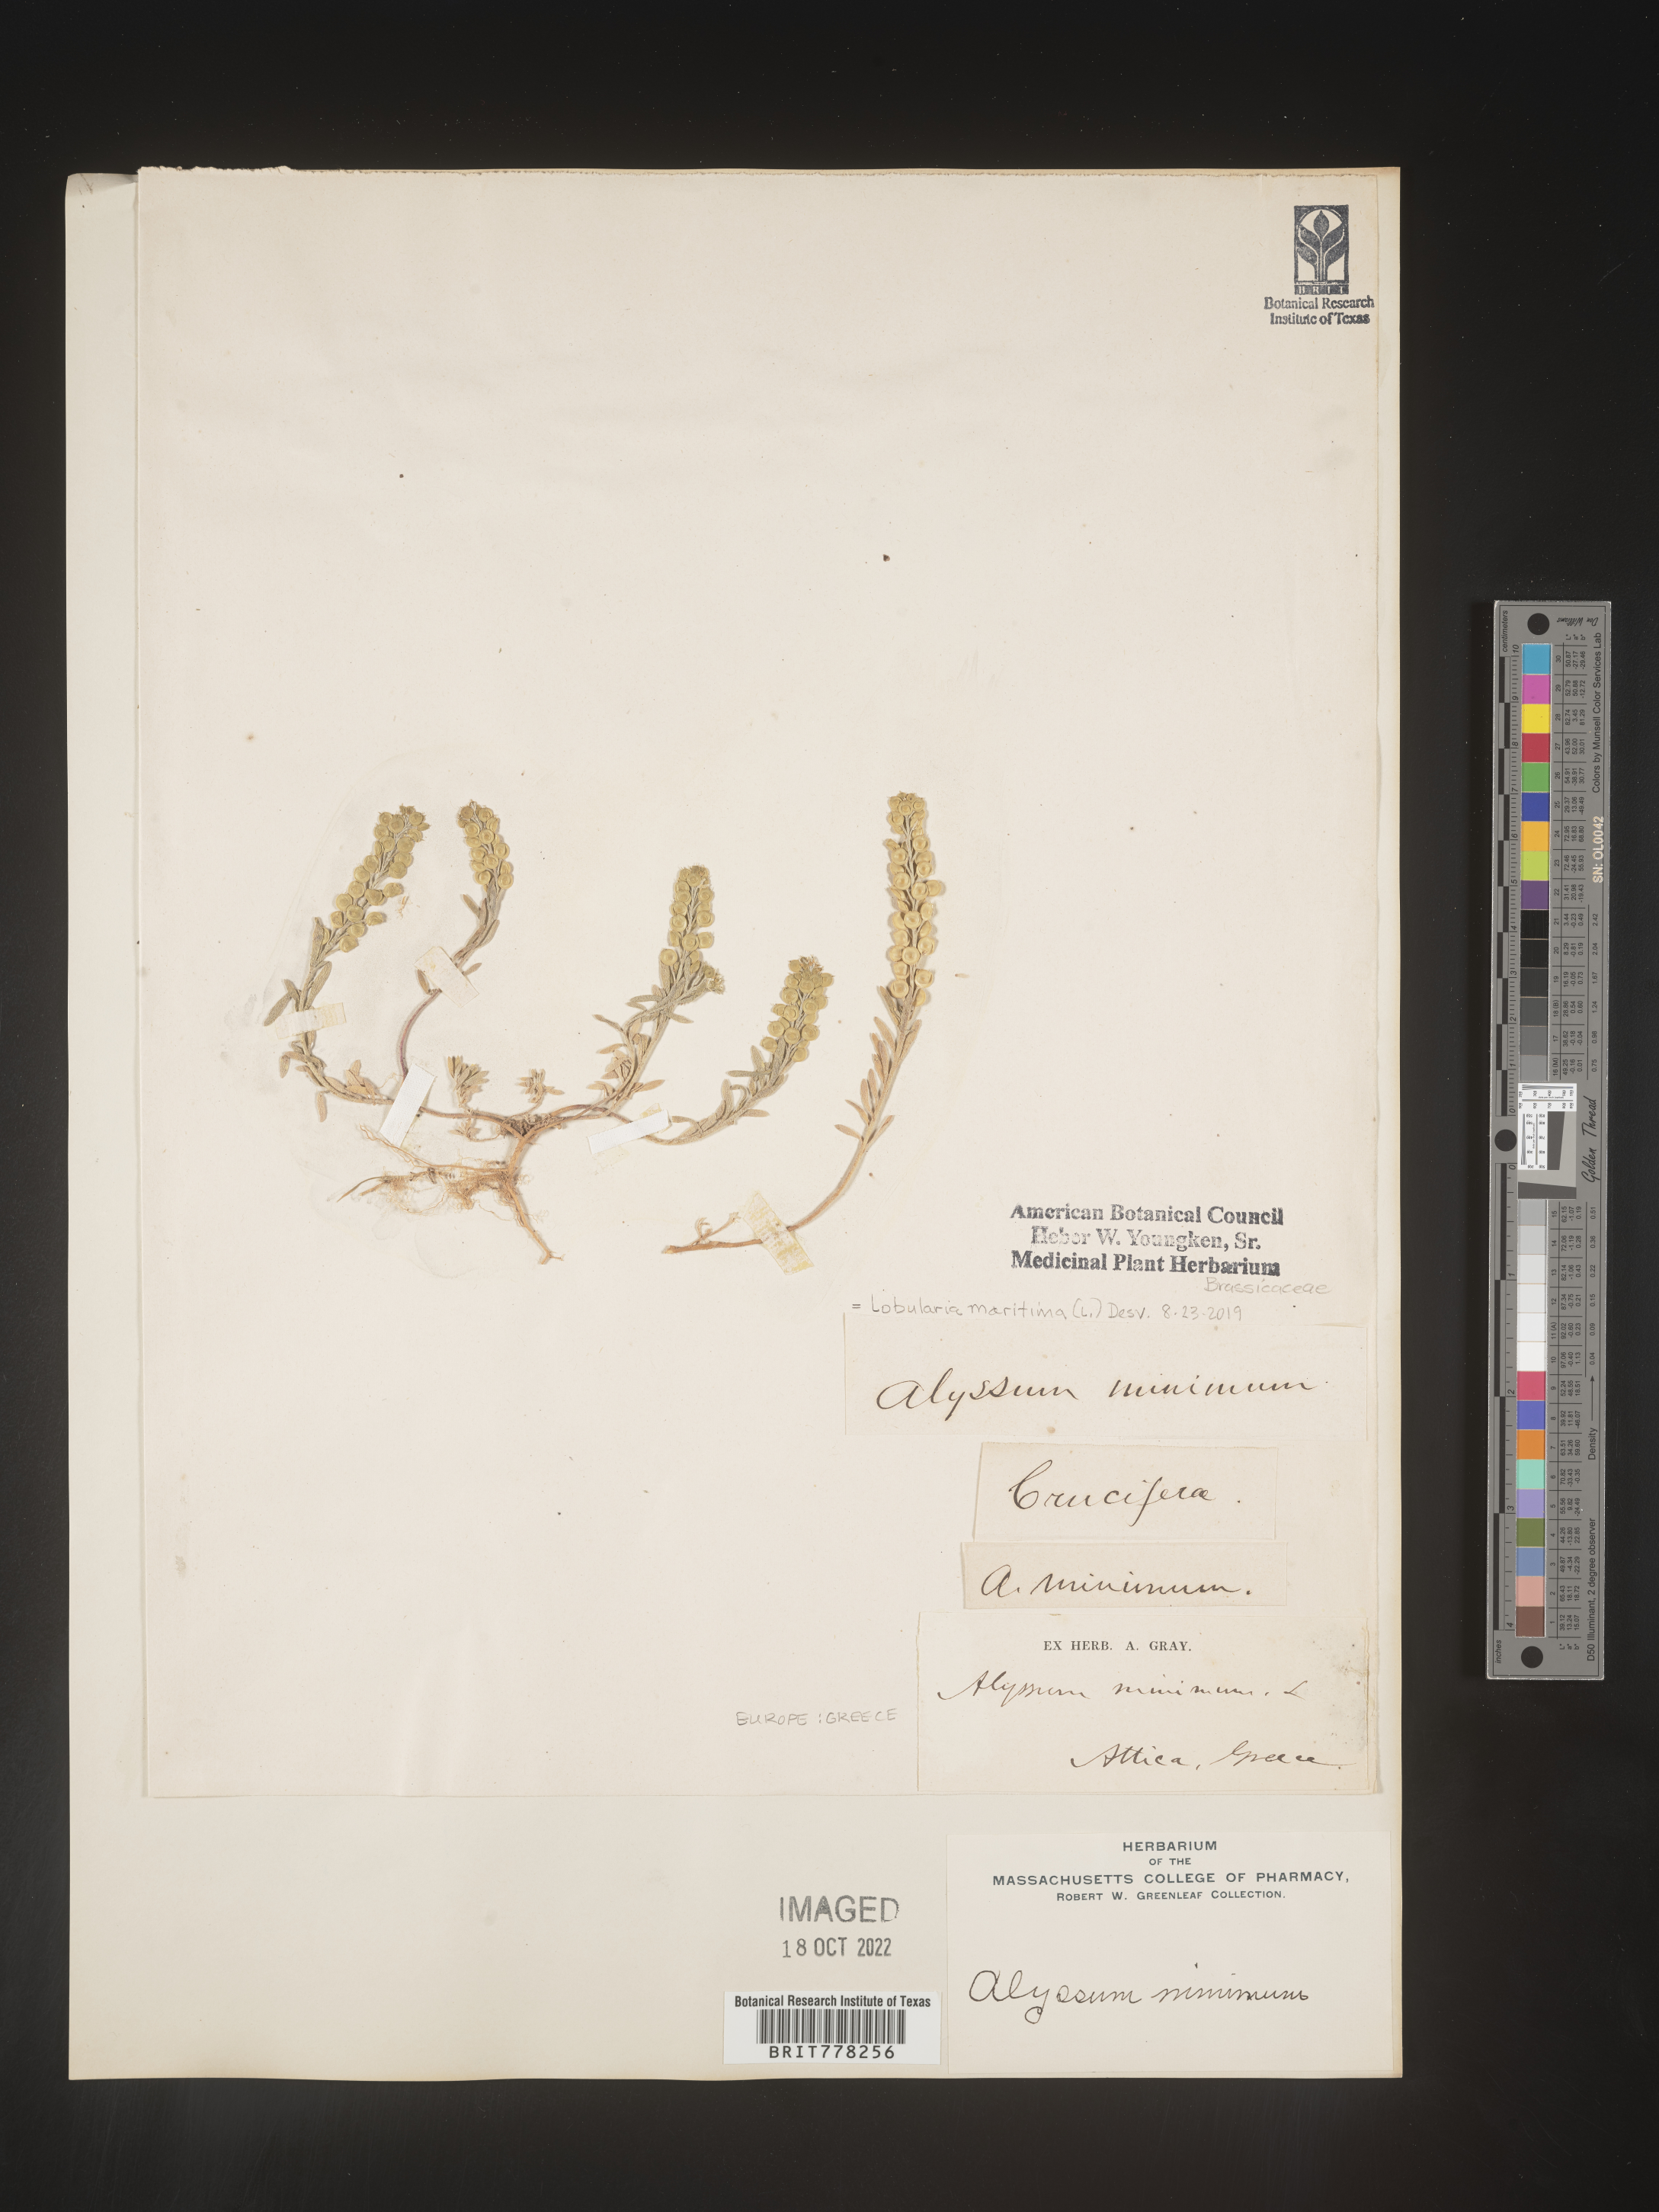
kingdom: Plantae
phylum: Tracheophyta
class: Magnoliopsida
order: Brassicales
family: Brassicaceae
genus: Lobularia
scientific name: Lobularia
